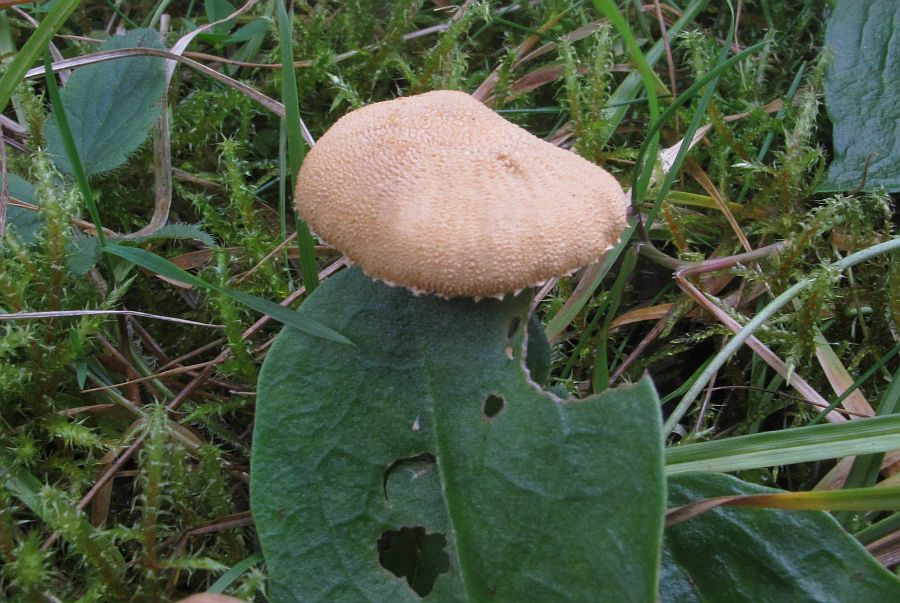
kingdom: Fungi
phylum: Basidiomycota
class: Agaricomycetes
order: Agaricales
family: Tricholomataceae
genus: Cystoderma
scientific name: Cystoderma carcharias
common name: rødgrå grynhat
